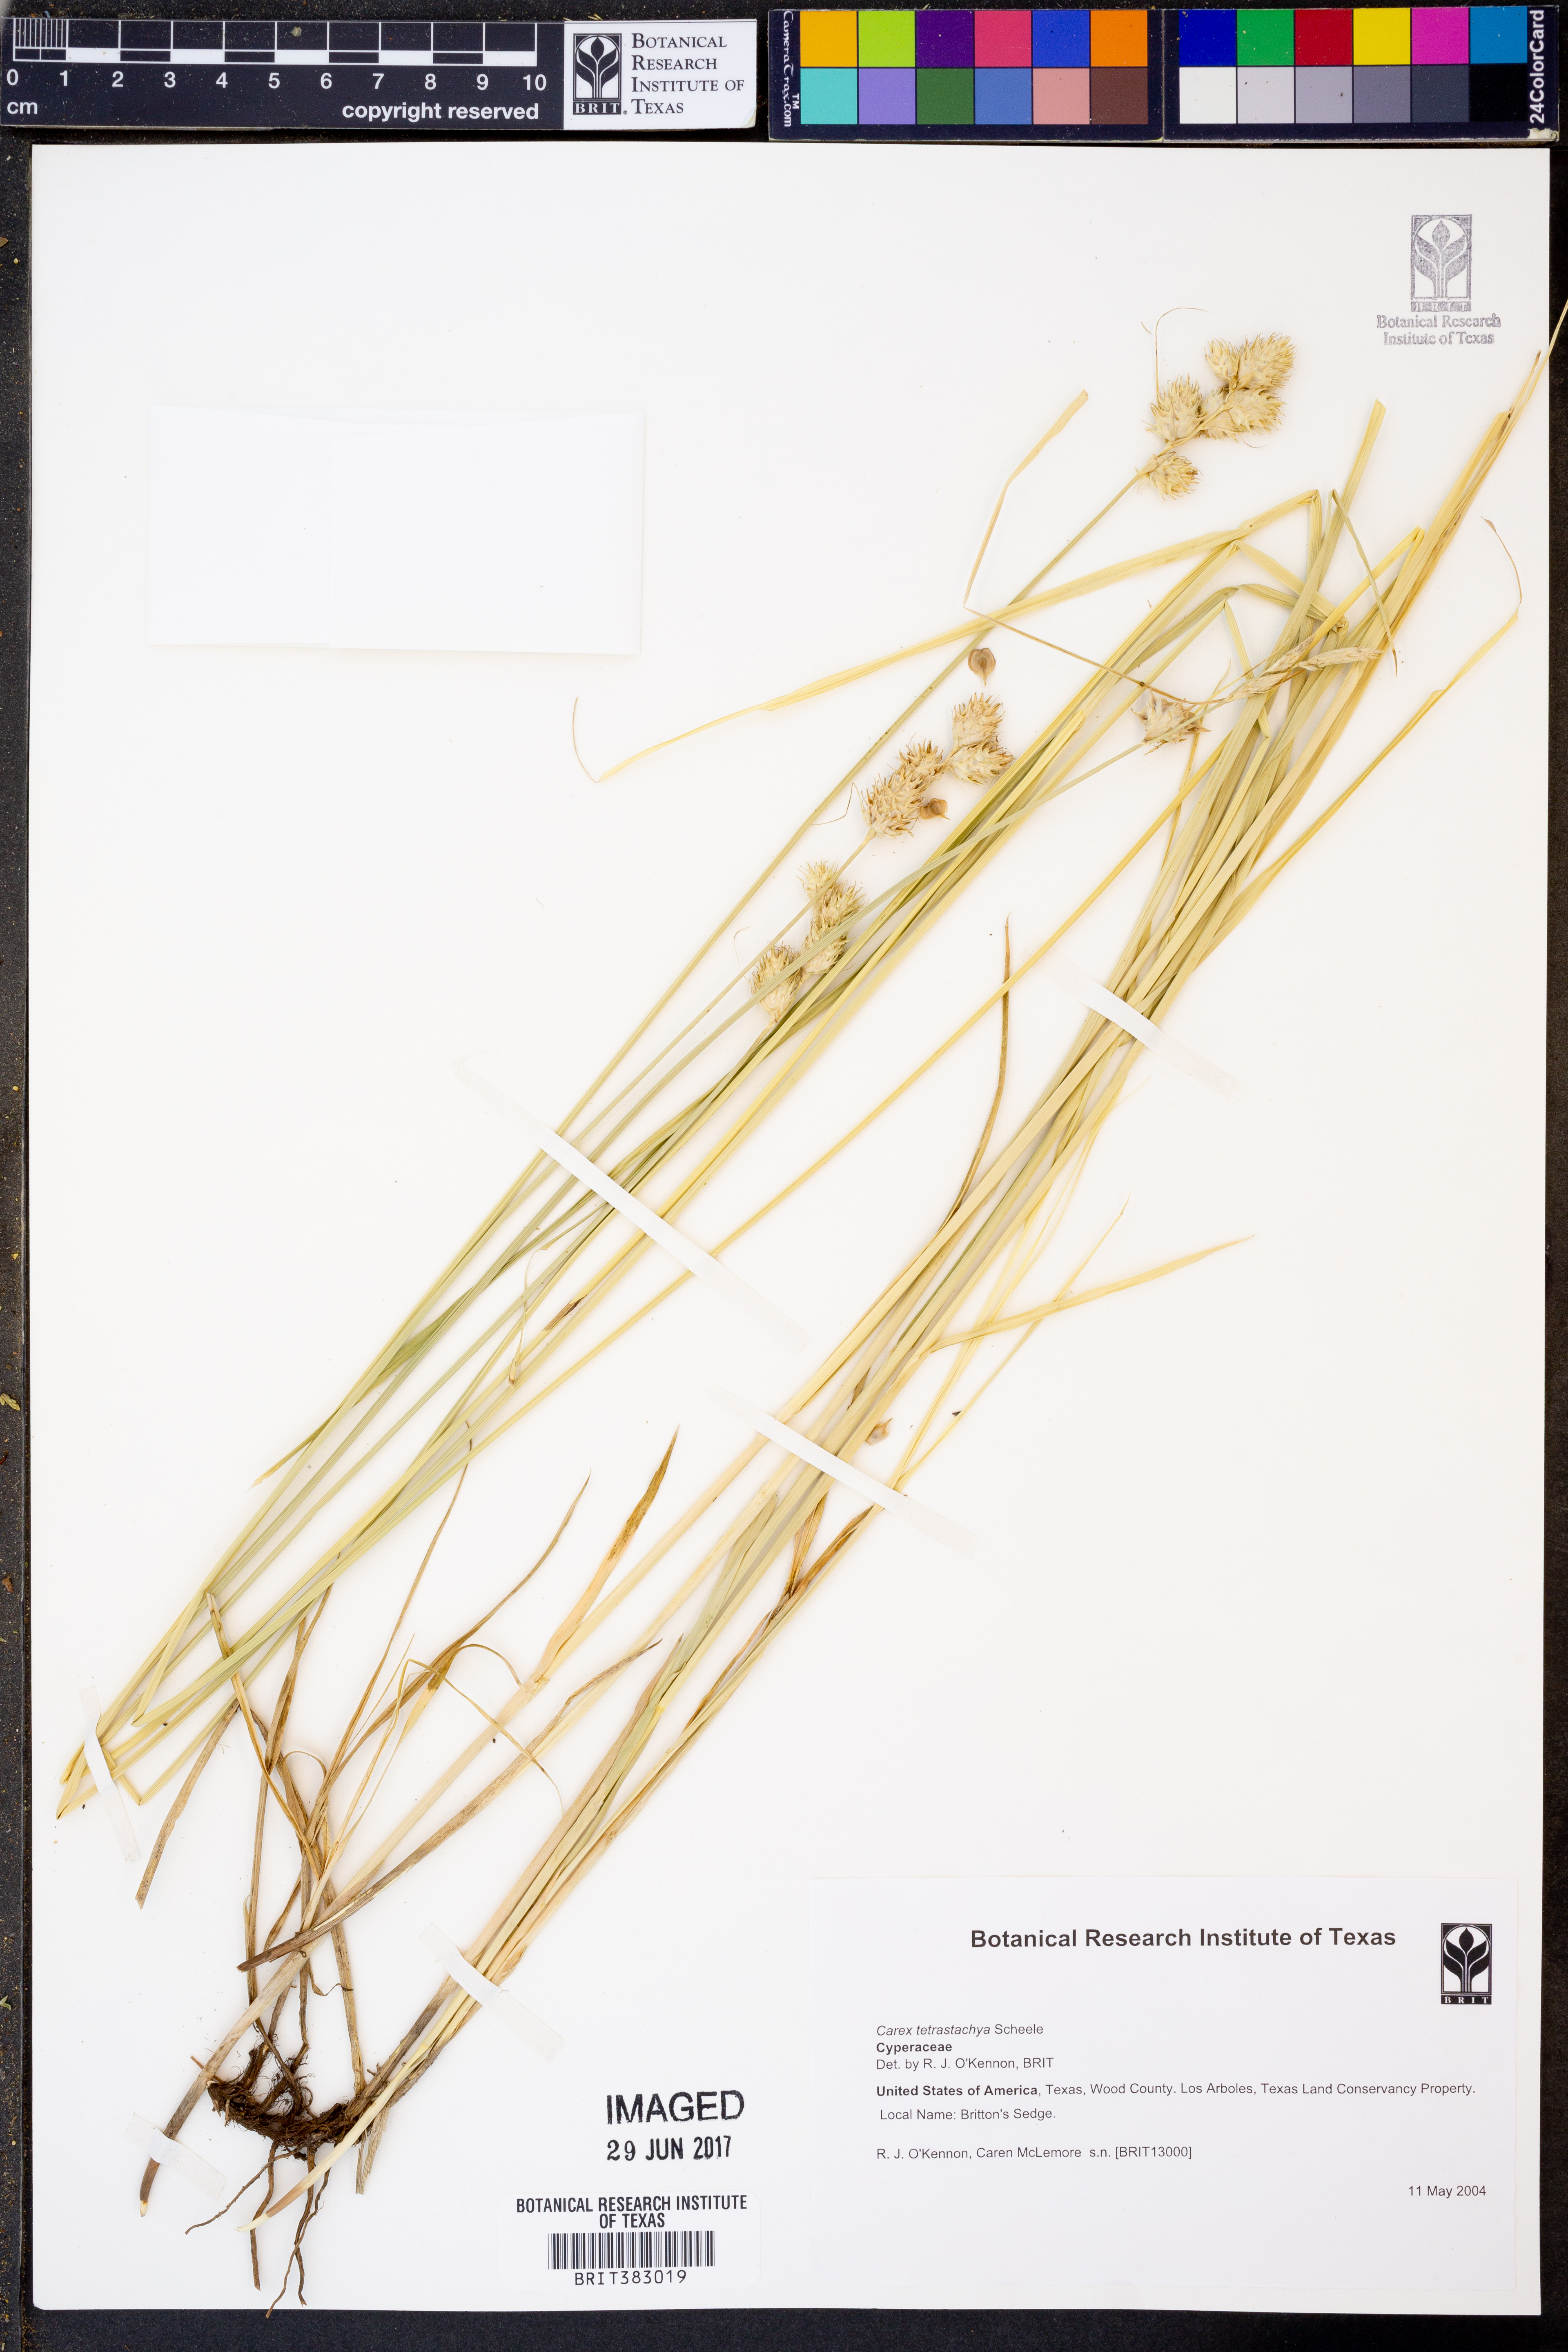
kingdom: Plantae
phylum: Tracheophyta
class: Liliopsida
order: Poales
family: Cyperaceae
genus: Carex
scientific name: Carex tetrastachya
